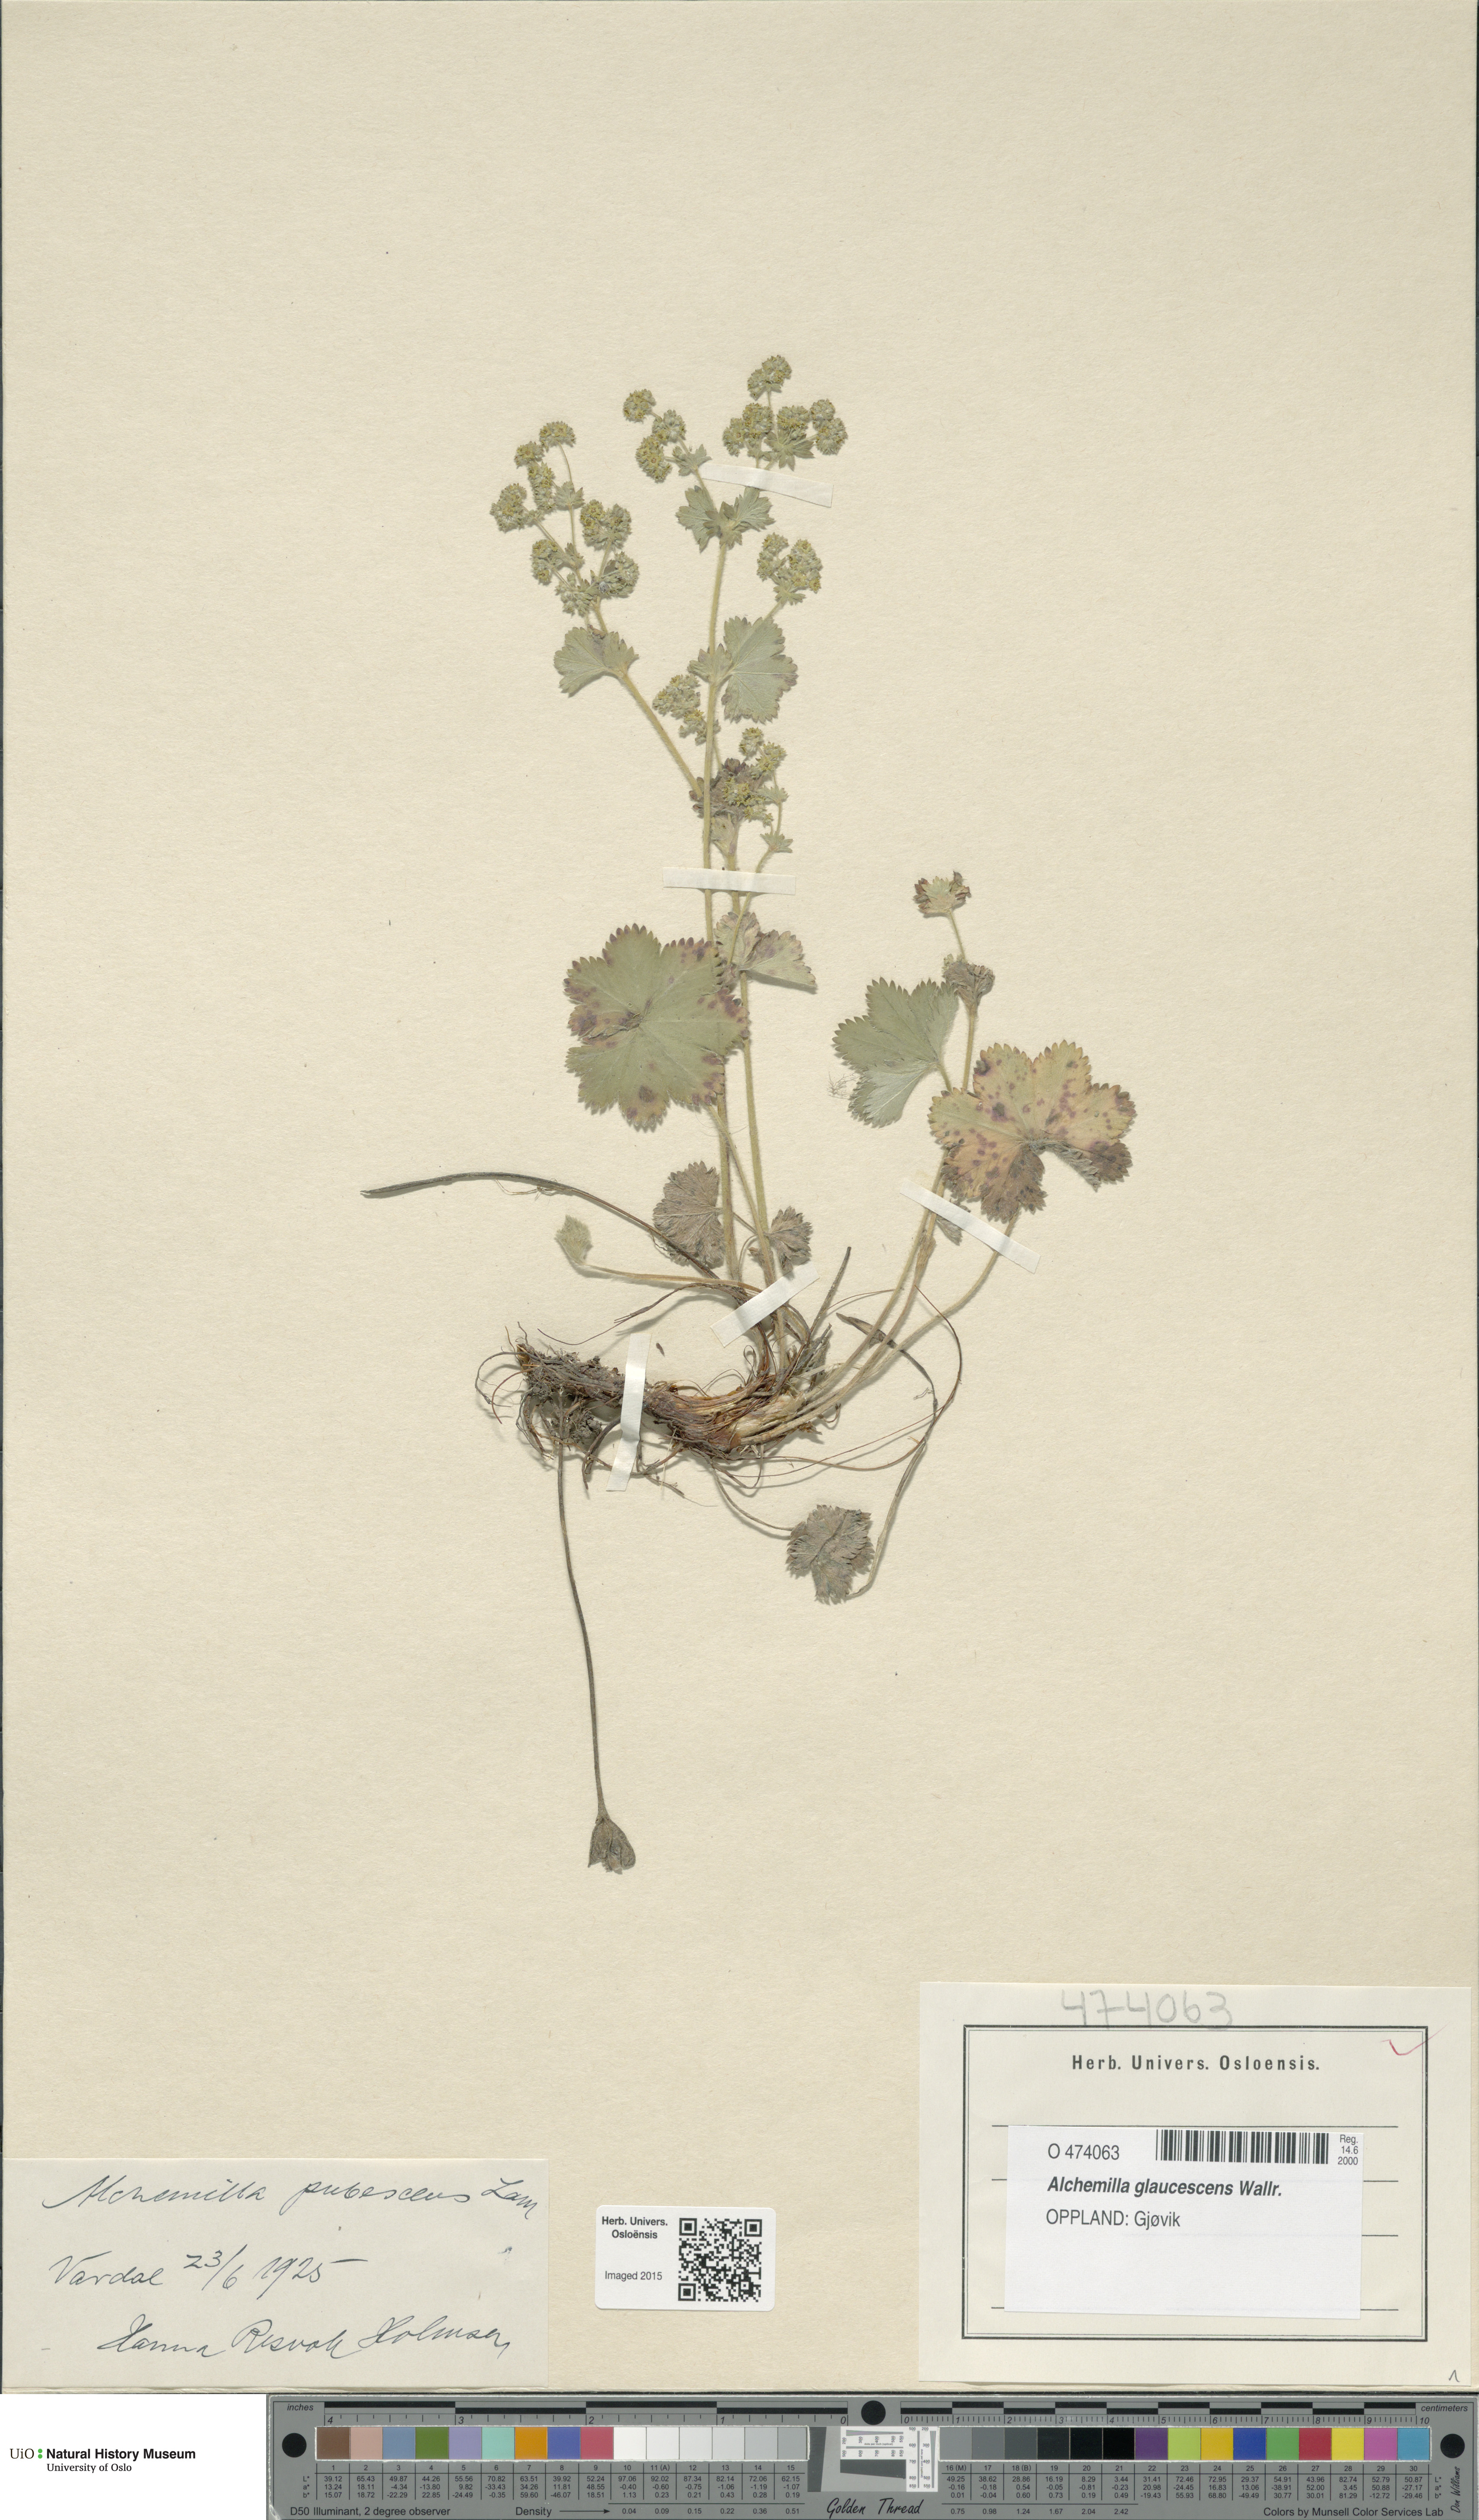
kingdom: Plantae
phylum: Tracheophyta
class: Magnoliopsida
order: Rosales
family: Rosaceae
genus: Alchemilla
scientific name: Alchemilla glaucescens
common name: Silky lady's mantle
